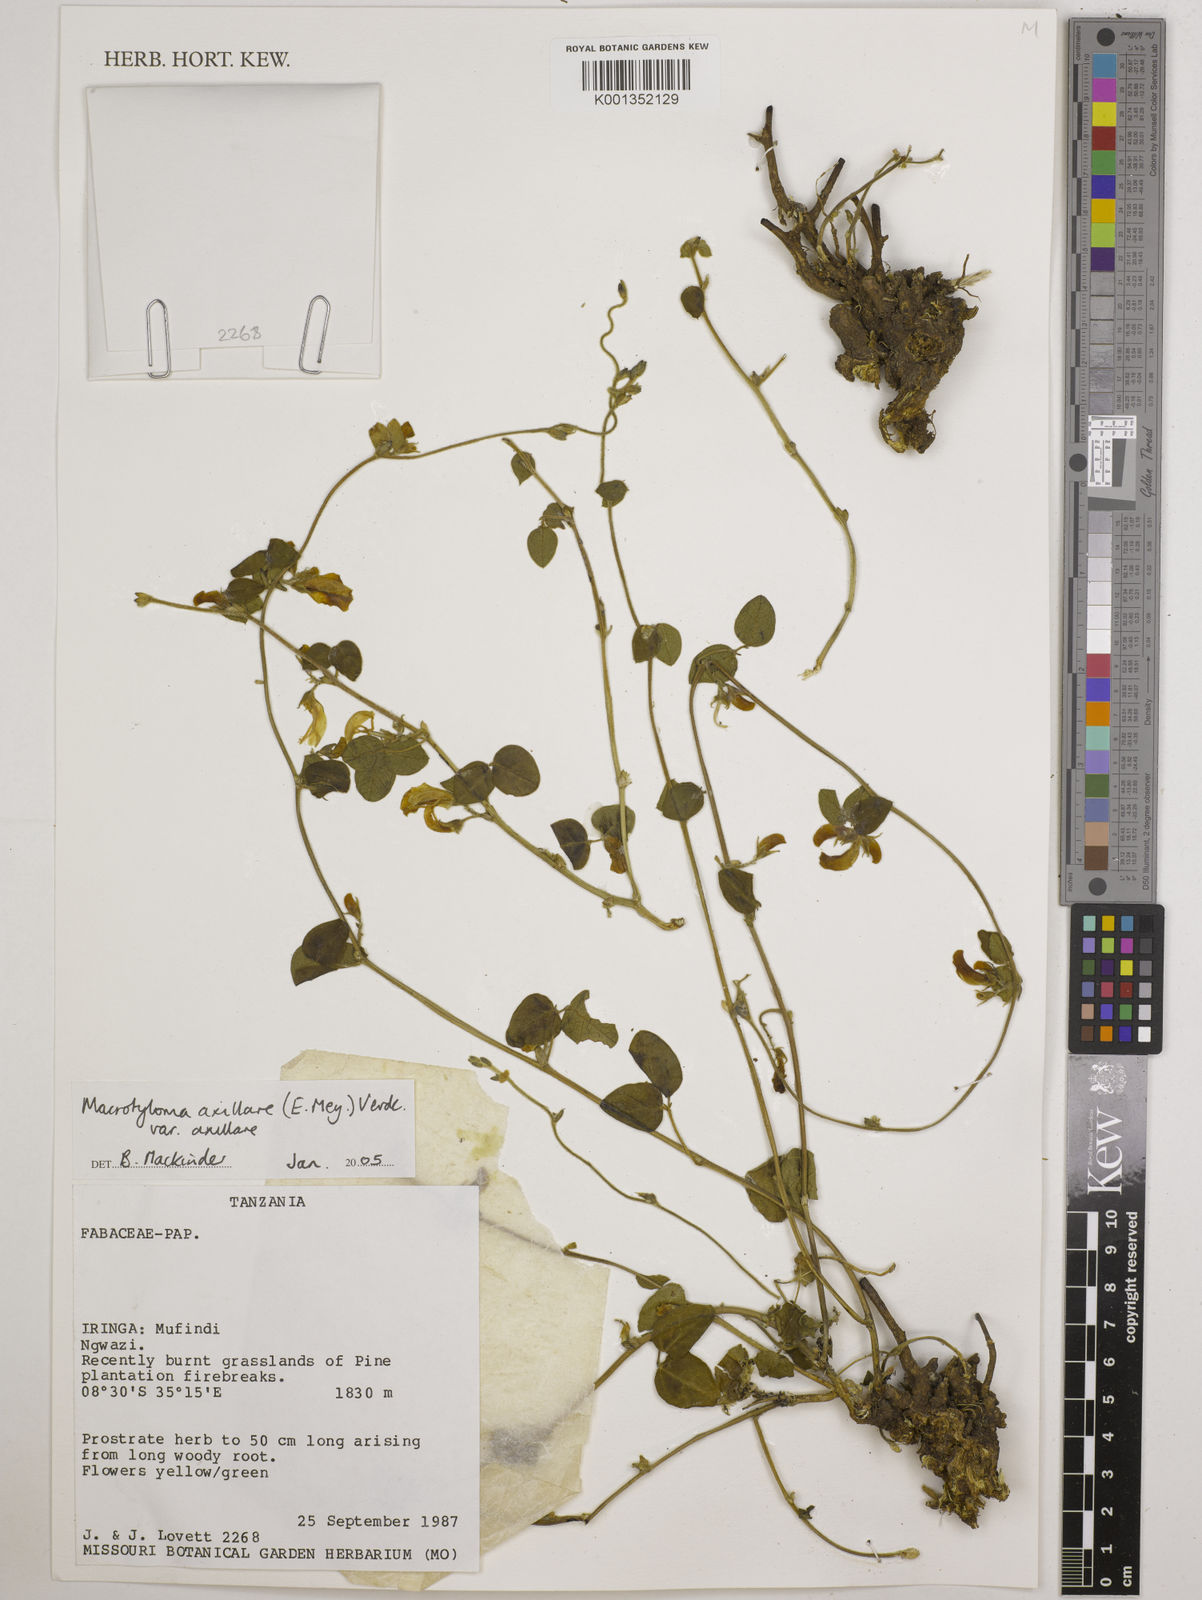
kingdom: Plantae
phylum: Tracheophyta
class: Magnoliopsida
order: Fabales
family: Fabaceae
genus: Macrotyloma
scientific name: Macrotyloma axillare
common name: Perennial horsegram
